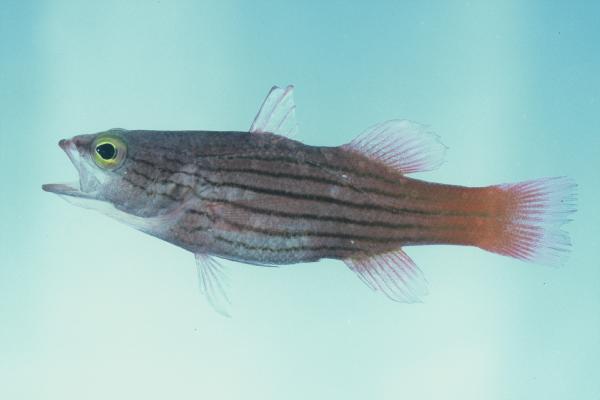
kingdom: Animalia
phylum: Chordata
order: Perciformes
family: Serranidae
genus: Liopropoma
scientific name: Liopropoma susumi
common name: Striped basslet
